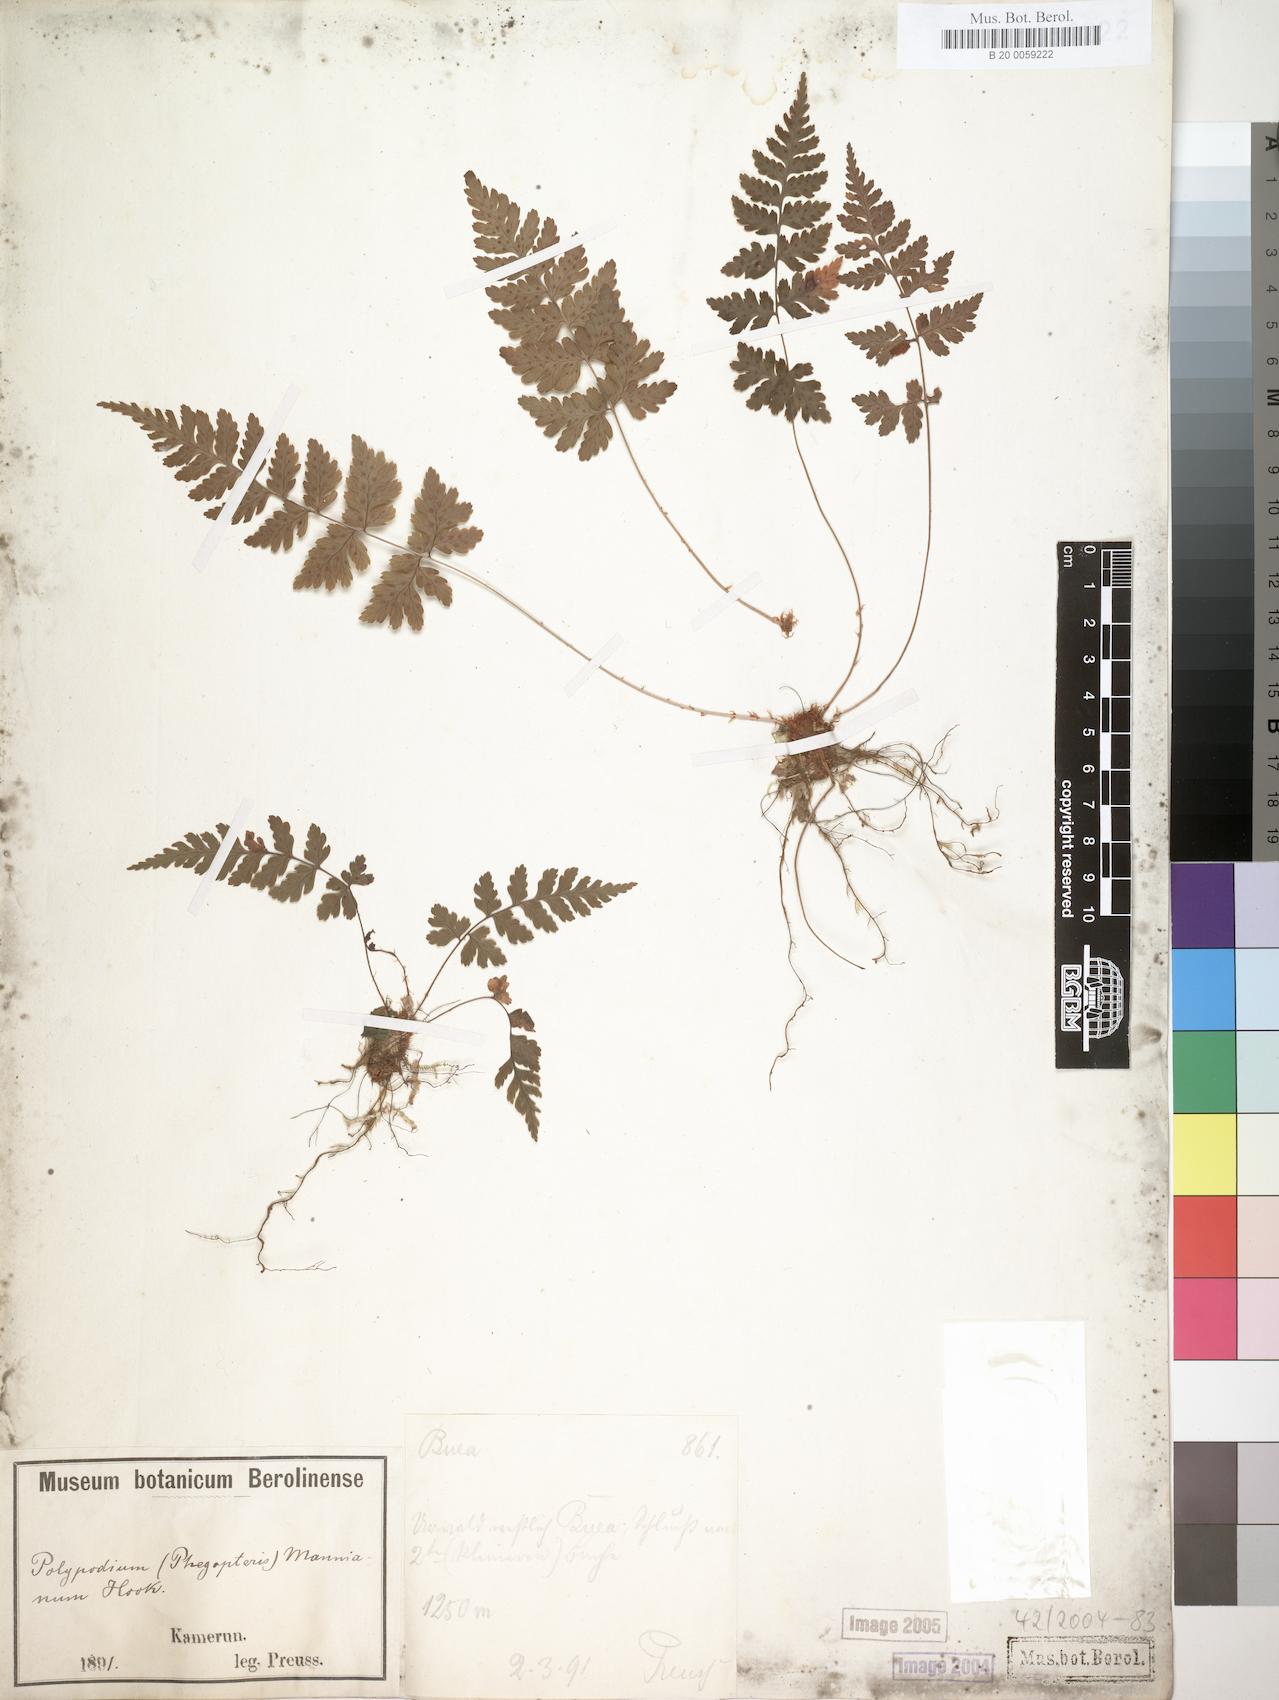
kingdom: Plantae
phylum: Tracheophyta
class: Polypodiopsida
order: Polypodiales
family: Dryopteridaceae
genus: Dryopteris
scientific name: Dryopteris manniana
